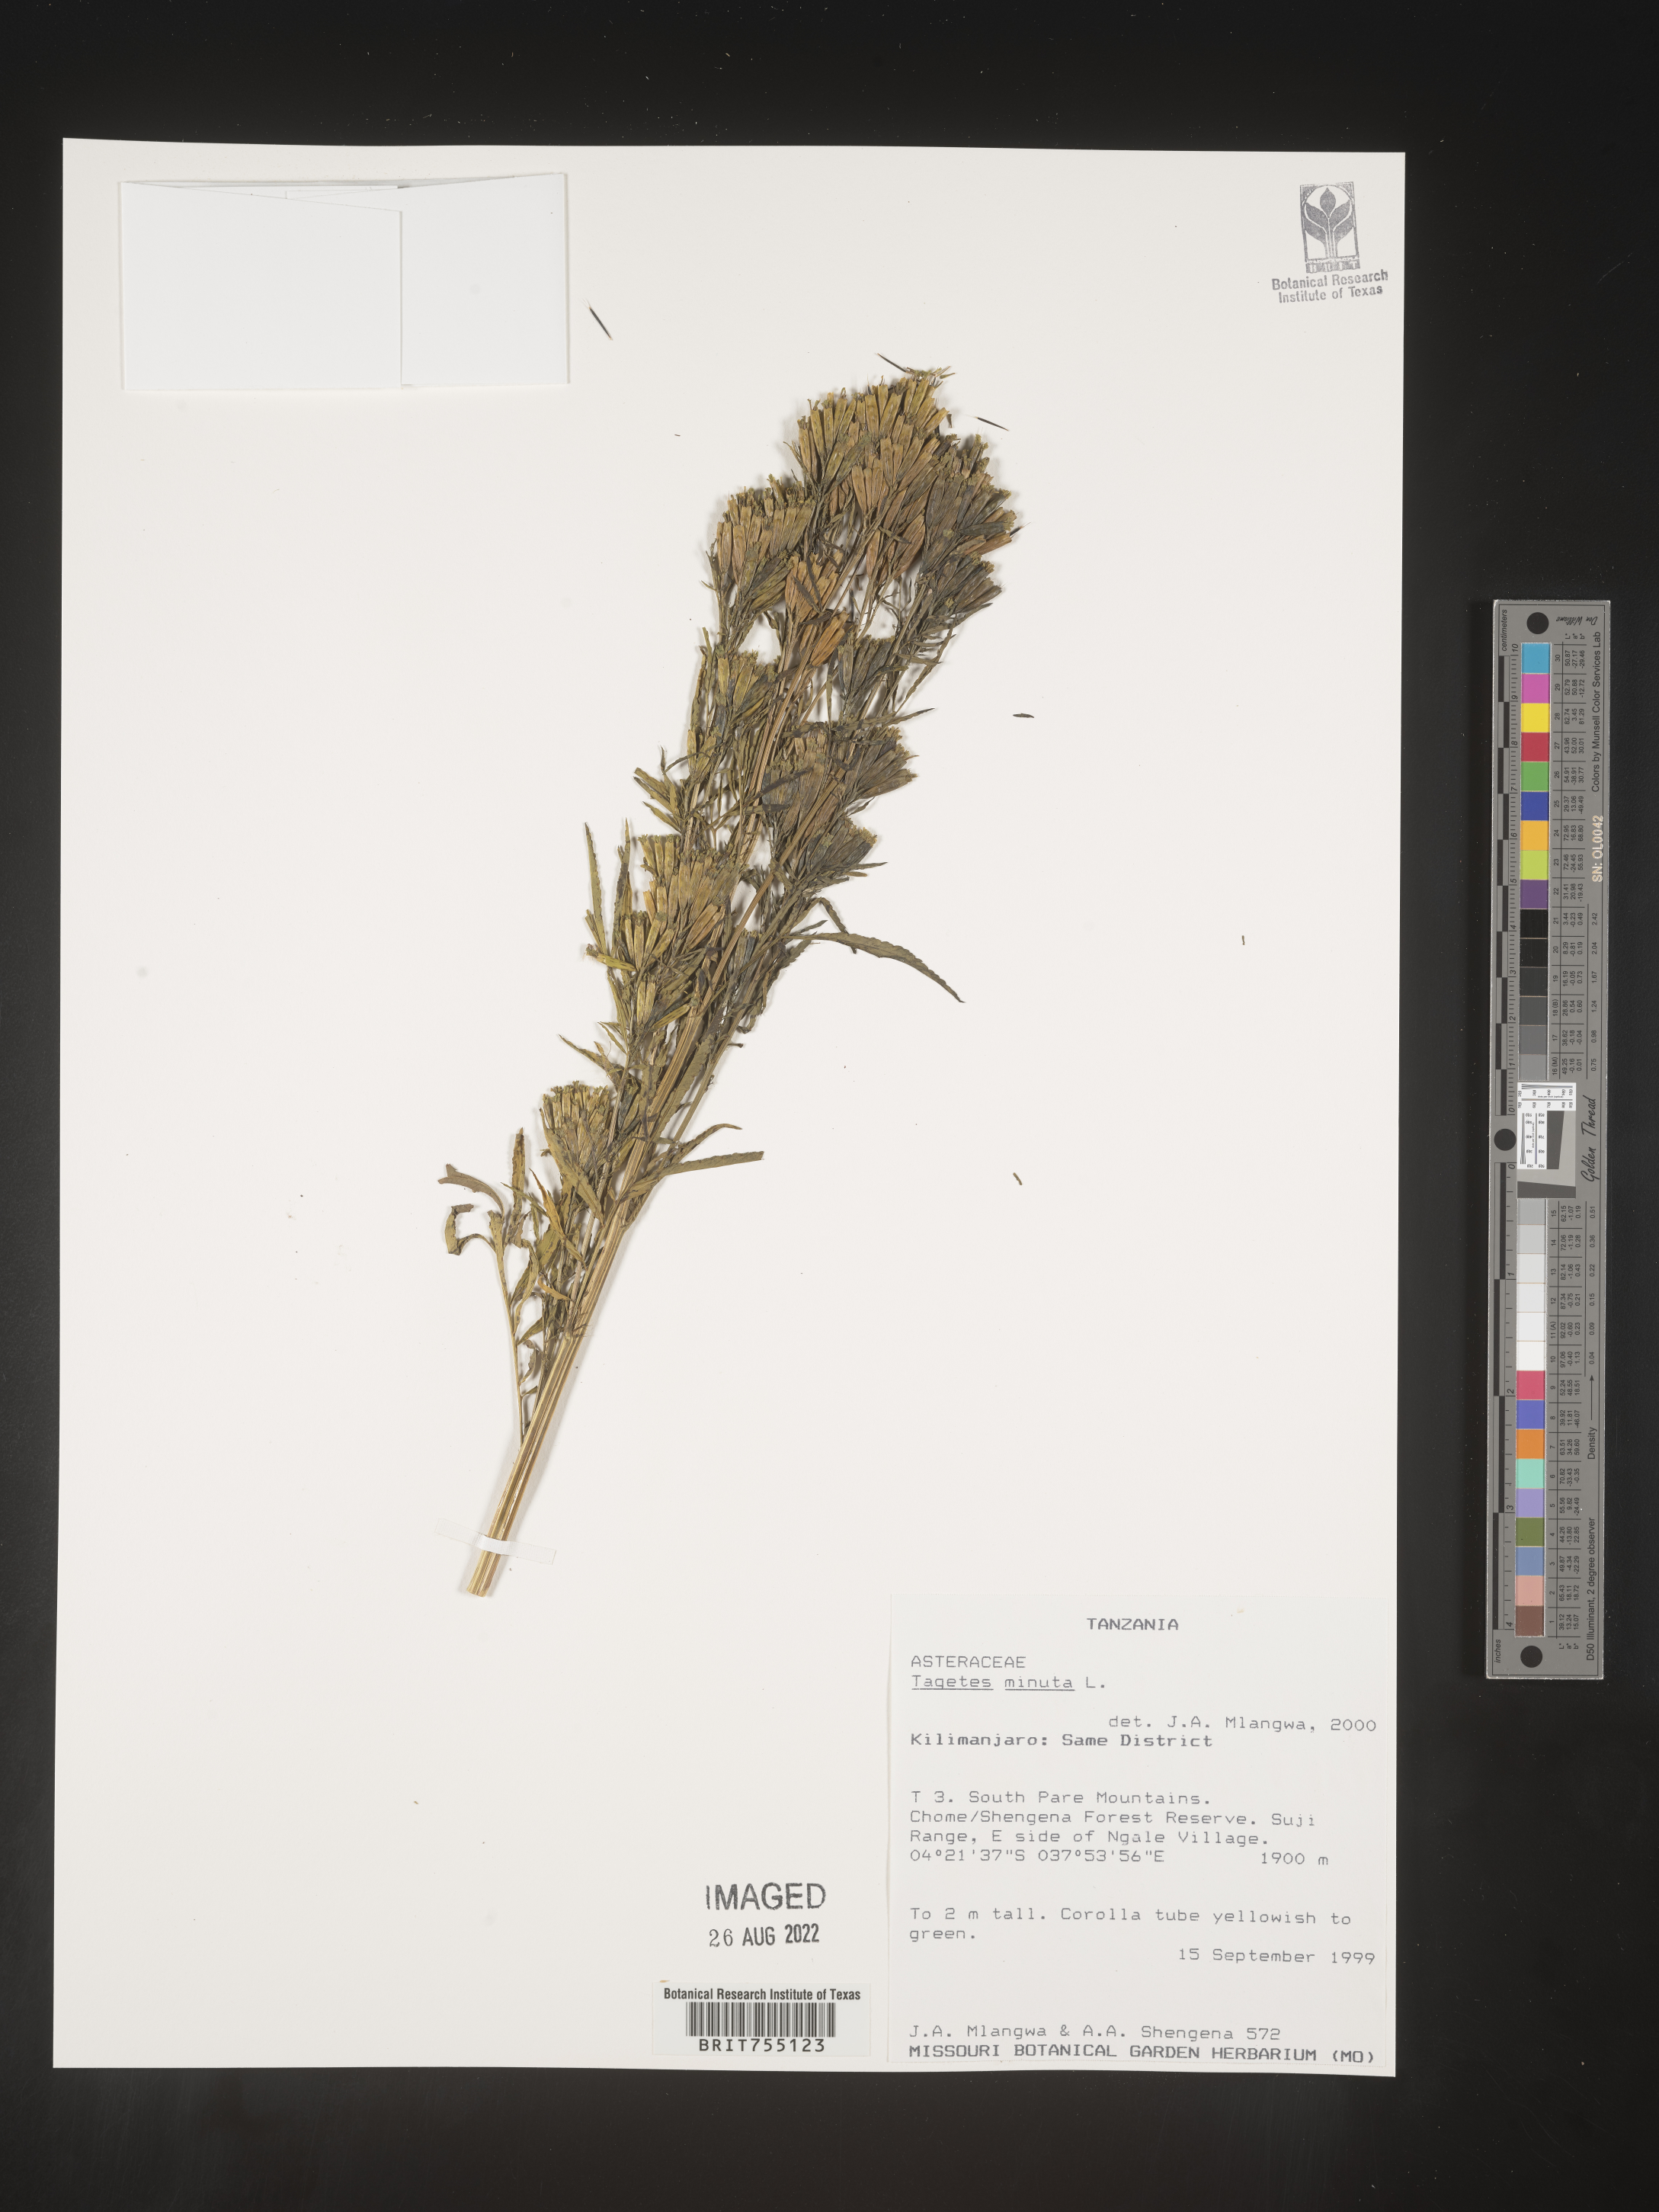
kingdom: Plantae
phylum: Tracheophyta
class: Magnoliopsida
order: Asterales
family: Asteraceae
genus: Tagetes
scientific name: Tagetes
